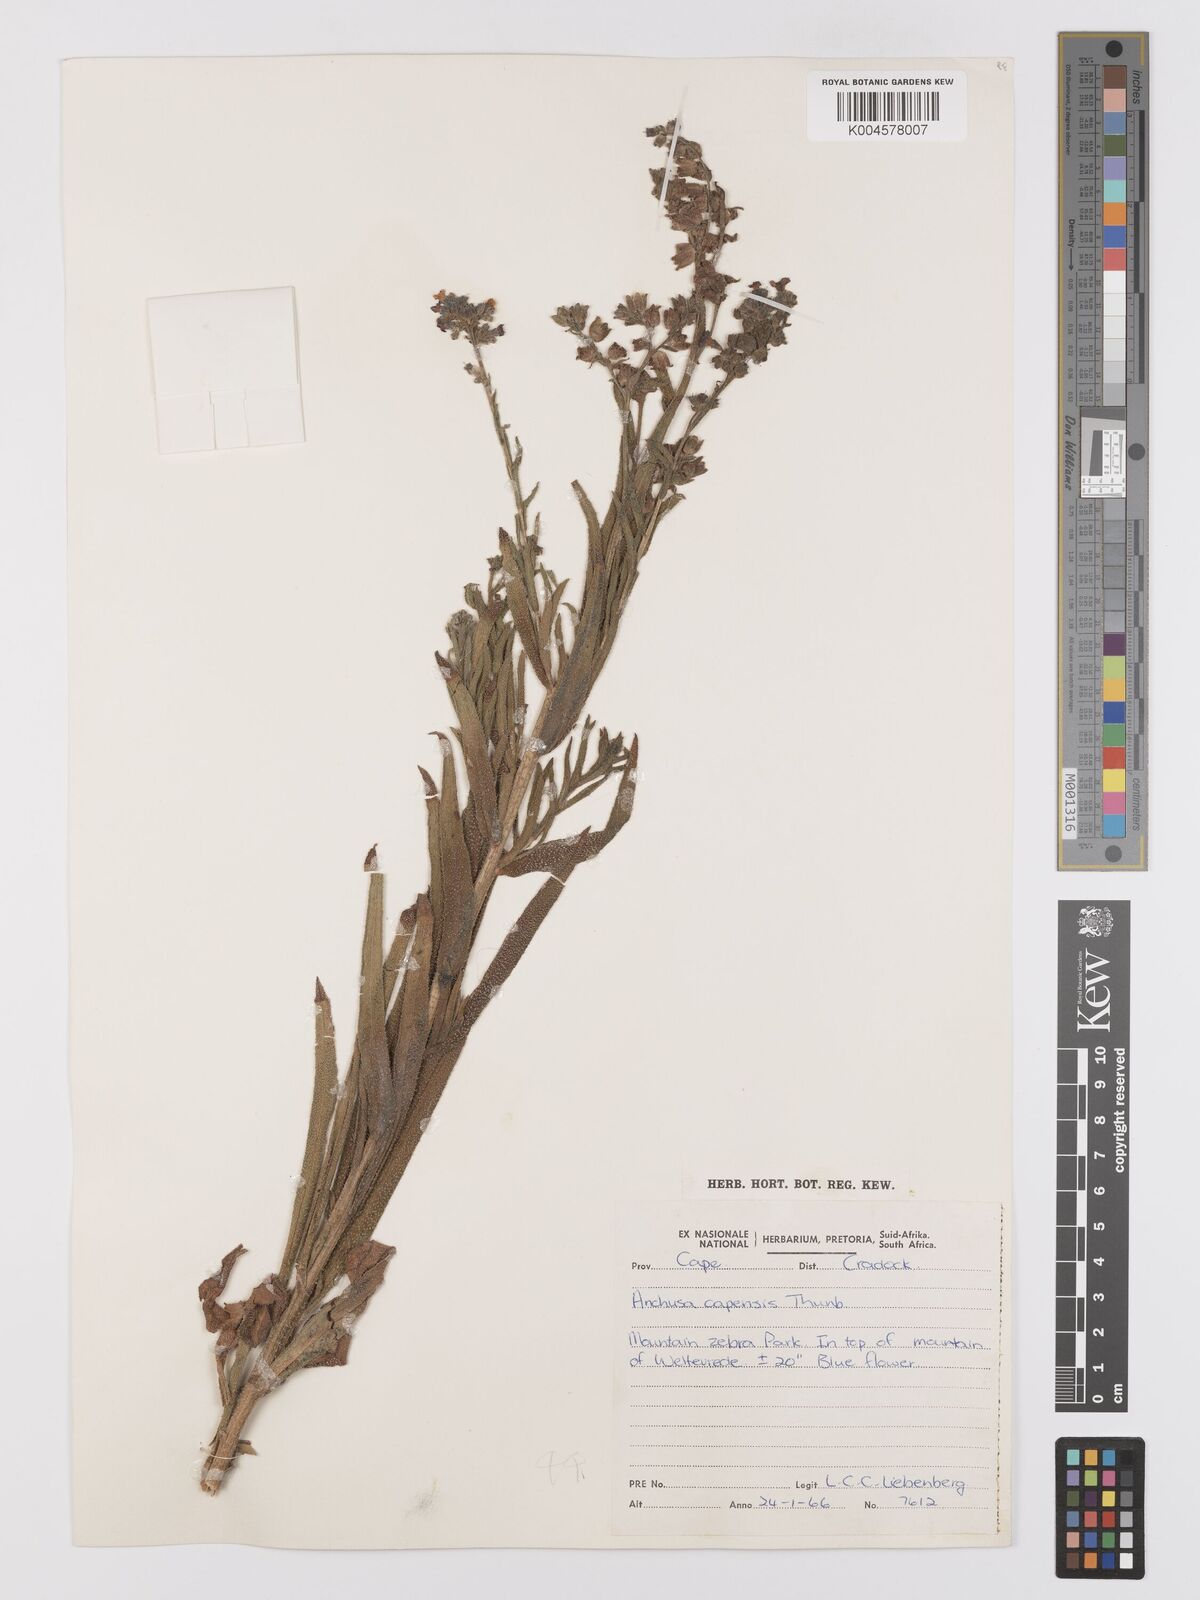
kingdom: Plantae
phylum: Tracheophyta
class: Magnoliopsida
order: Boraginales
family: Boraginaceae
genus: Anchusa
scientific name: Anchusa capensis
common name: Cape bugloss
